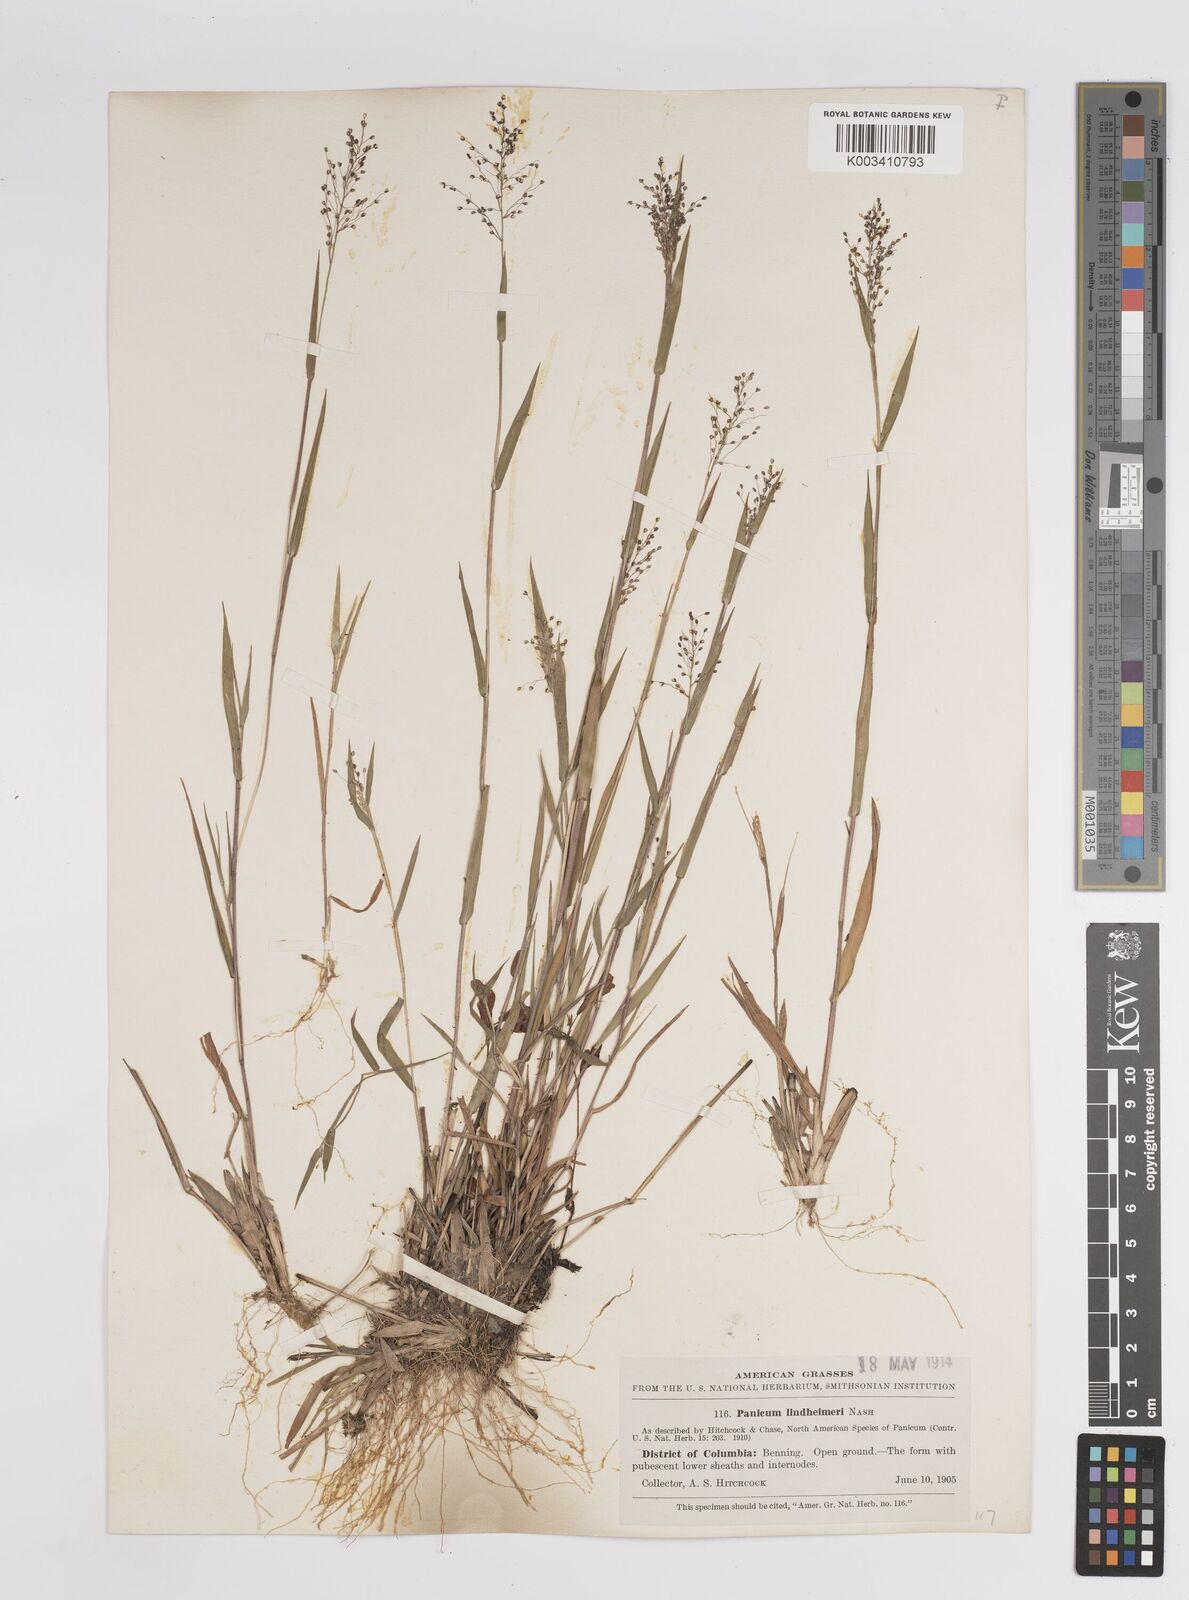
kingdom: Plantae
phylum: Tracheophyta
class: Liliopsida
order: Poales
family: Poaceae
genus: Dichanthelium
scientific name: Dichanthelium acuminatum
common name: Hairy panic grass
